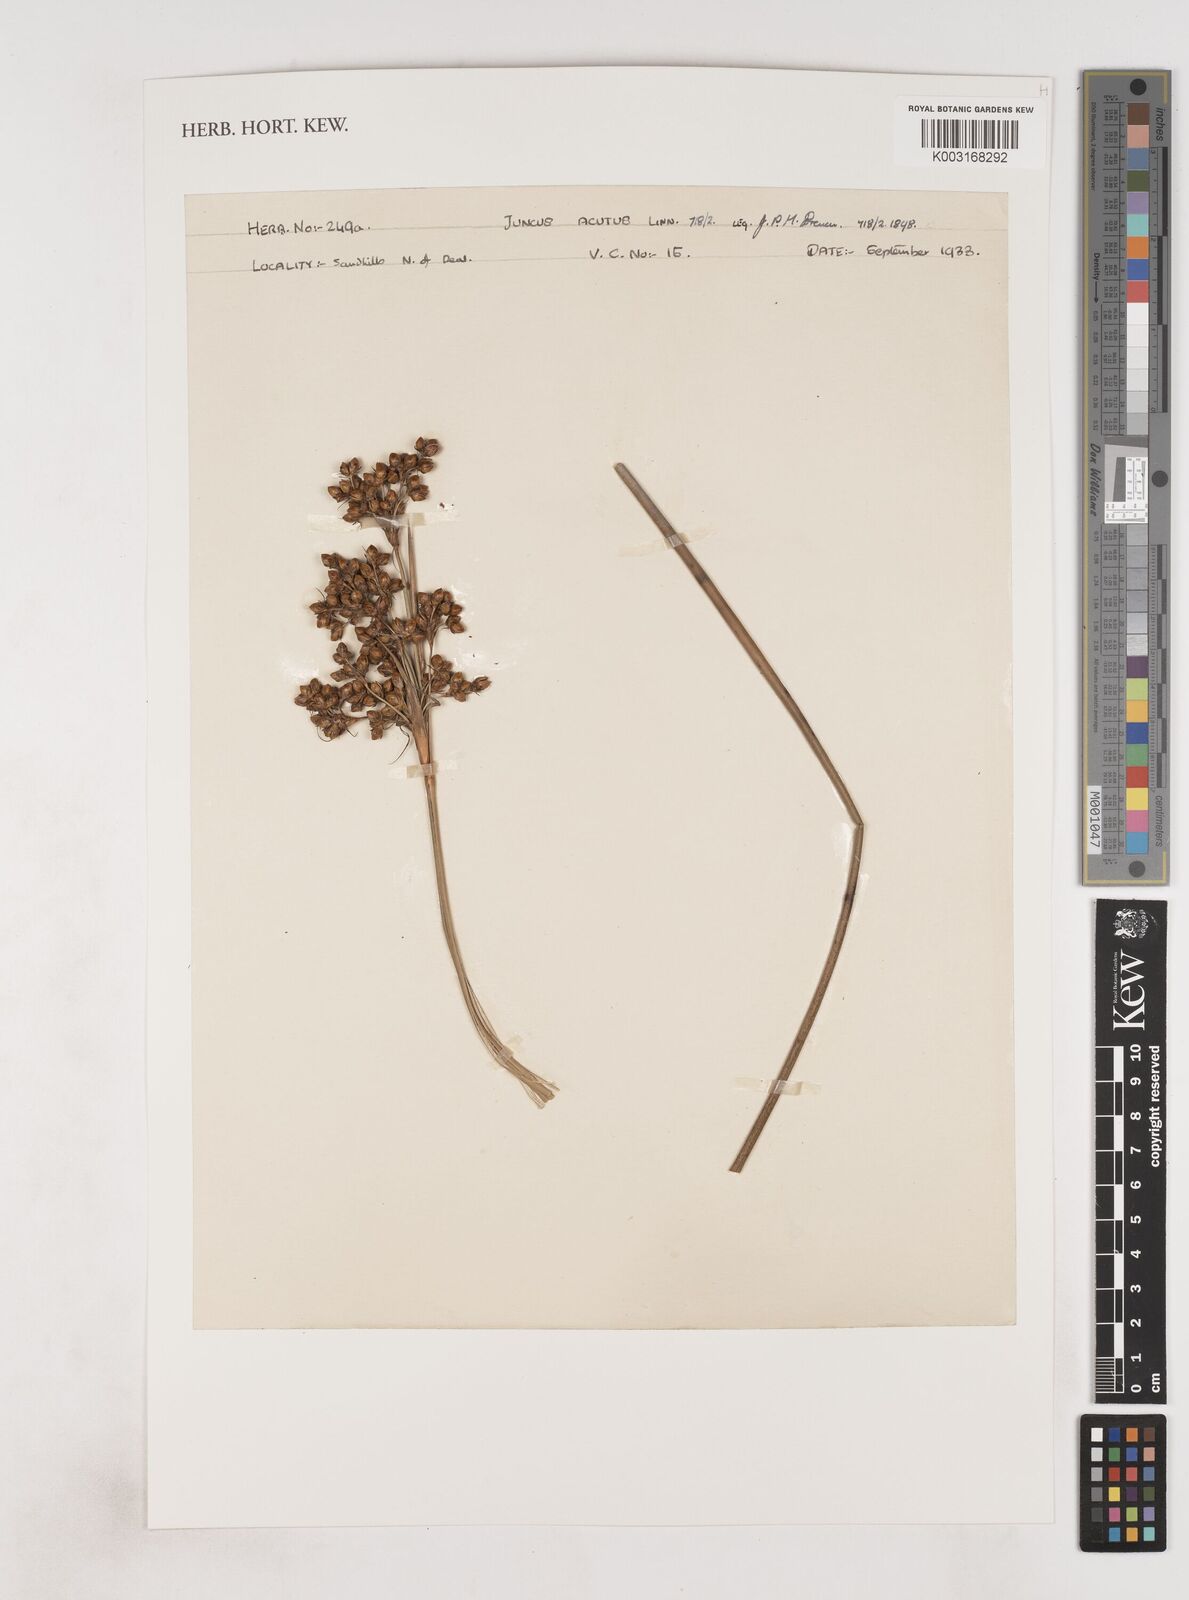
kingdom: Plantae
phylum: Tracheophyta
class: Liliopsida
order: Poales
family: Juncaceae
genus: Juncus
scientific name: Juncus acutus
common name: Sharp rush
